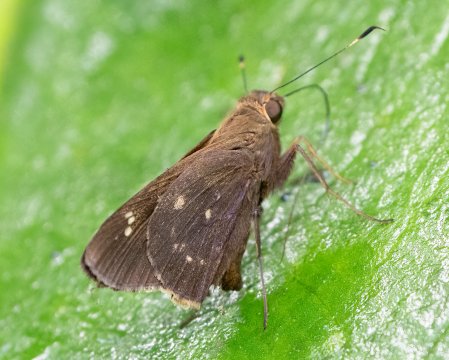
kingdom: Animalia
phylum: Arthropoda
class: Insecta
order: Lepidoptera
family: Hesperiidae
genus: Naevolus
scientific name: Naevolus orius
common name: Orius Skipper
